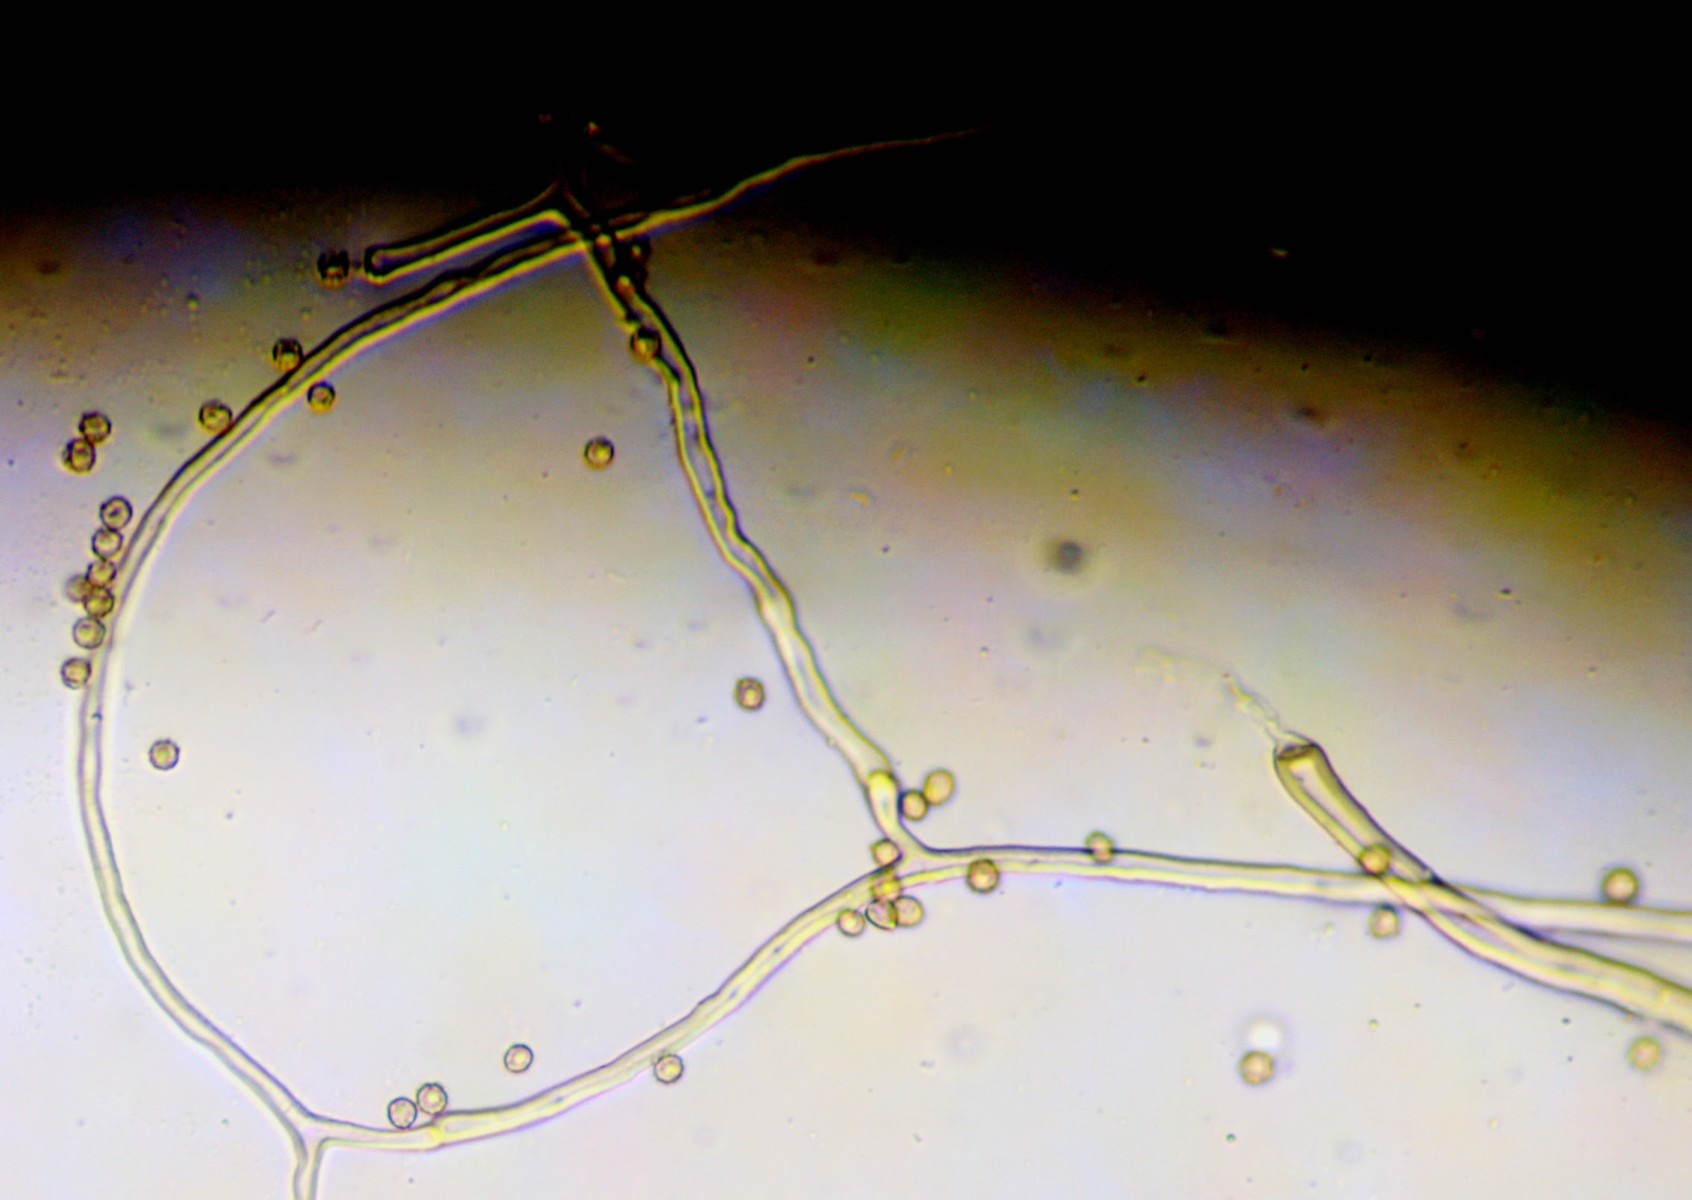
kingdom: Fungi
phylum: Basidiomycota
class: Agaricomycetes
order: Agaricales
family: Agaricaceae
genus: Tulostoma
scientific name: Tulostoma kotlabae
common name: gråhvid stilkbovist
